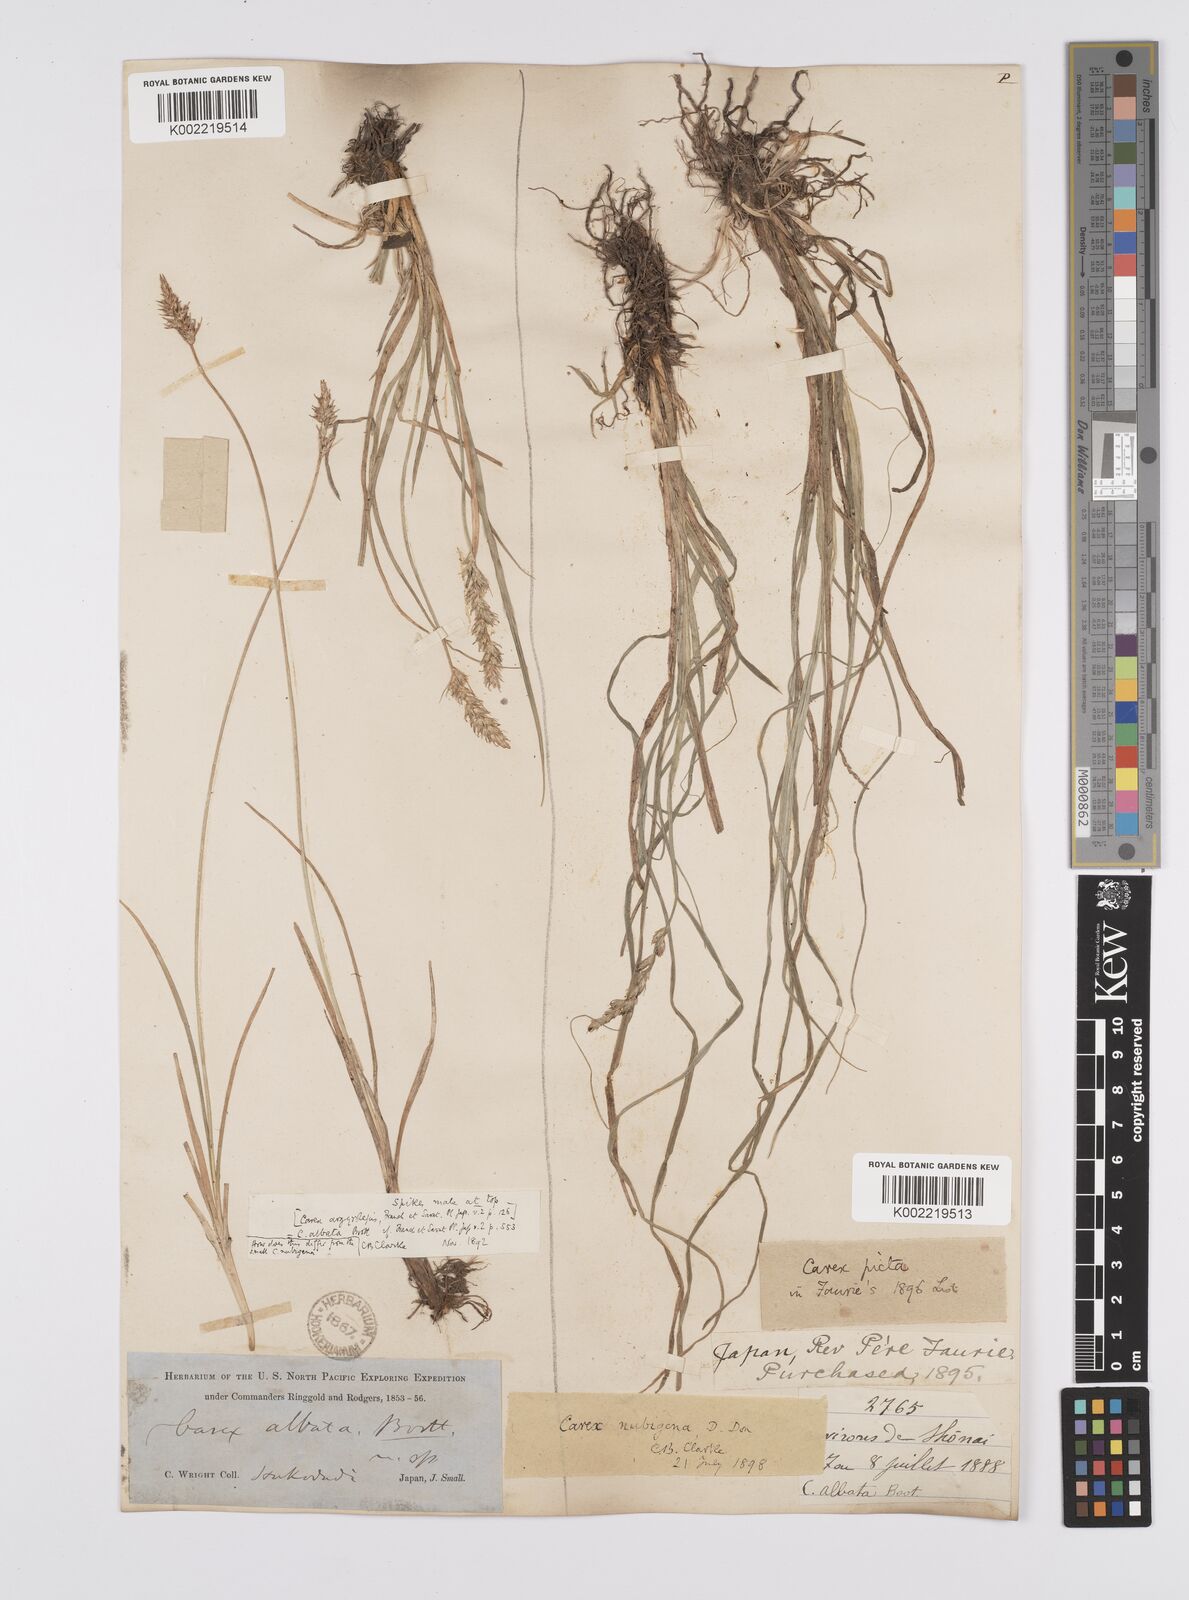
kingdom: Plantae
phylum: Tracheophyta
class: Liliopsida
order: Poales
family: Cyperaceae
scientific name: Cyperaceae
